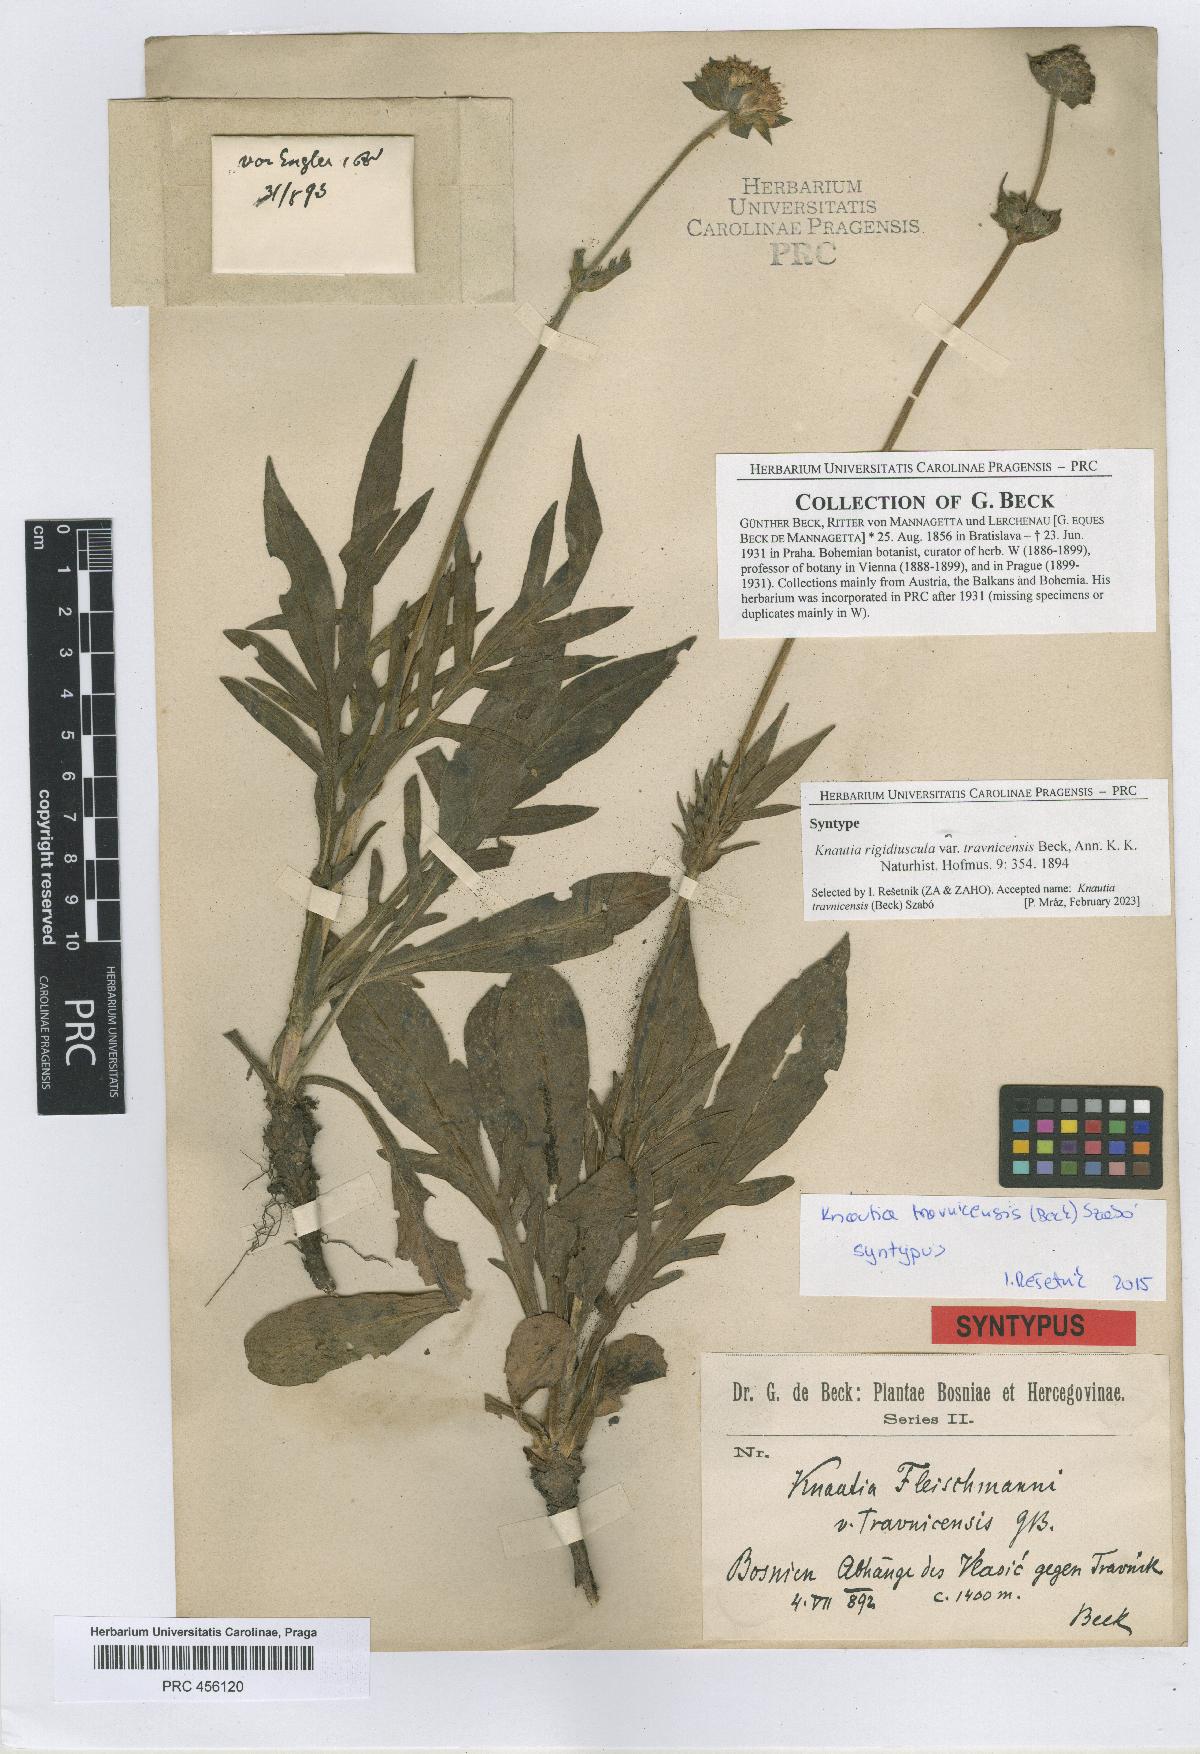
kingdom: Plantae
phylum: Tracheophyta
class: Magnoliopsida
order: Dipsacales
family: Caprifoliaceae
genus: Knautia
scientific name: Knautia travnicensis
